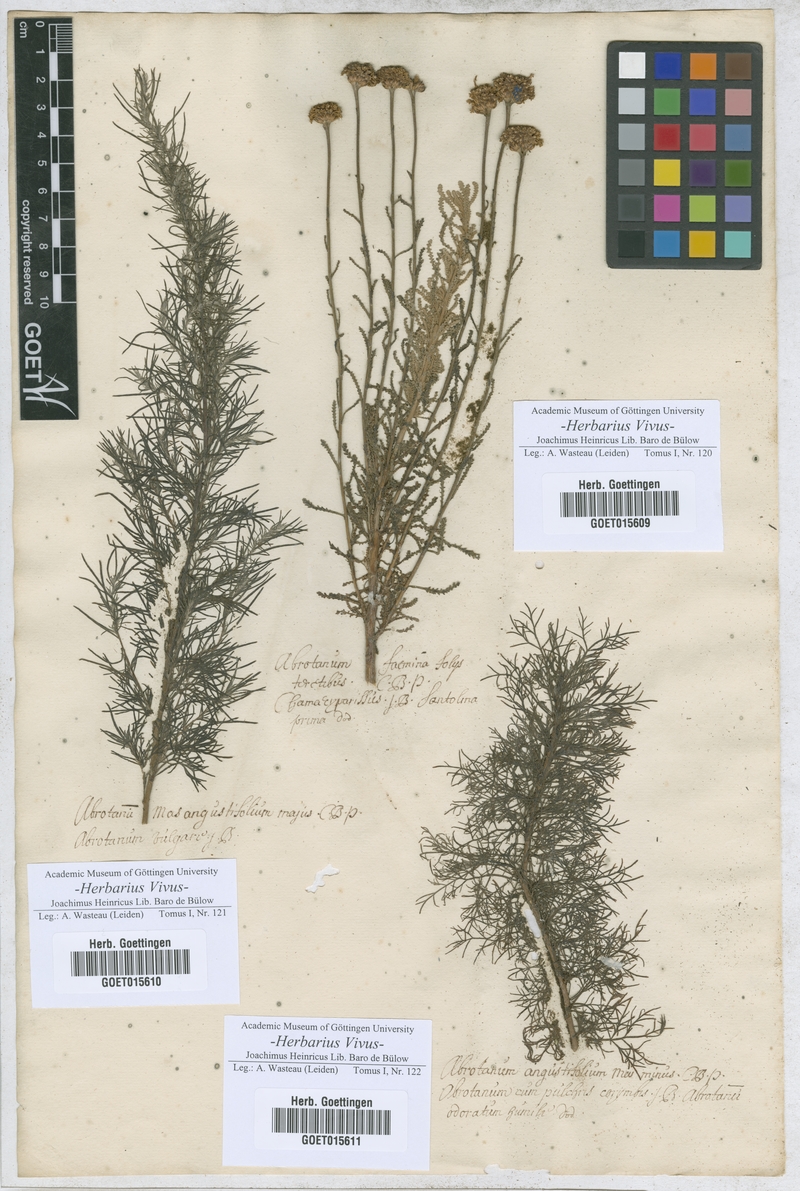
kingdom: Plantae
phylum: Tracheophyta
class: Magnoliopsida
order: Asterales
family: Asteraceae
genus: Santolina
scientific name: Santolina chamaecyparissus
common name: Lavender-cotton
